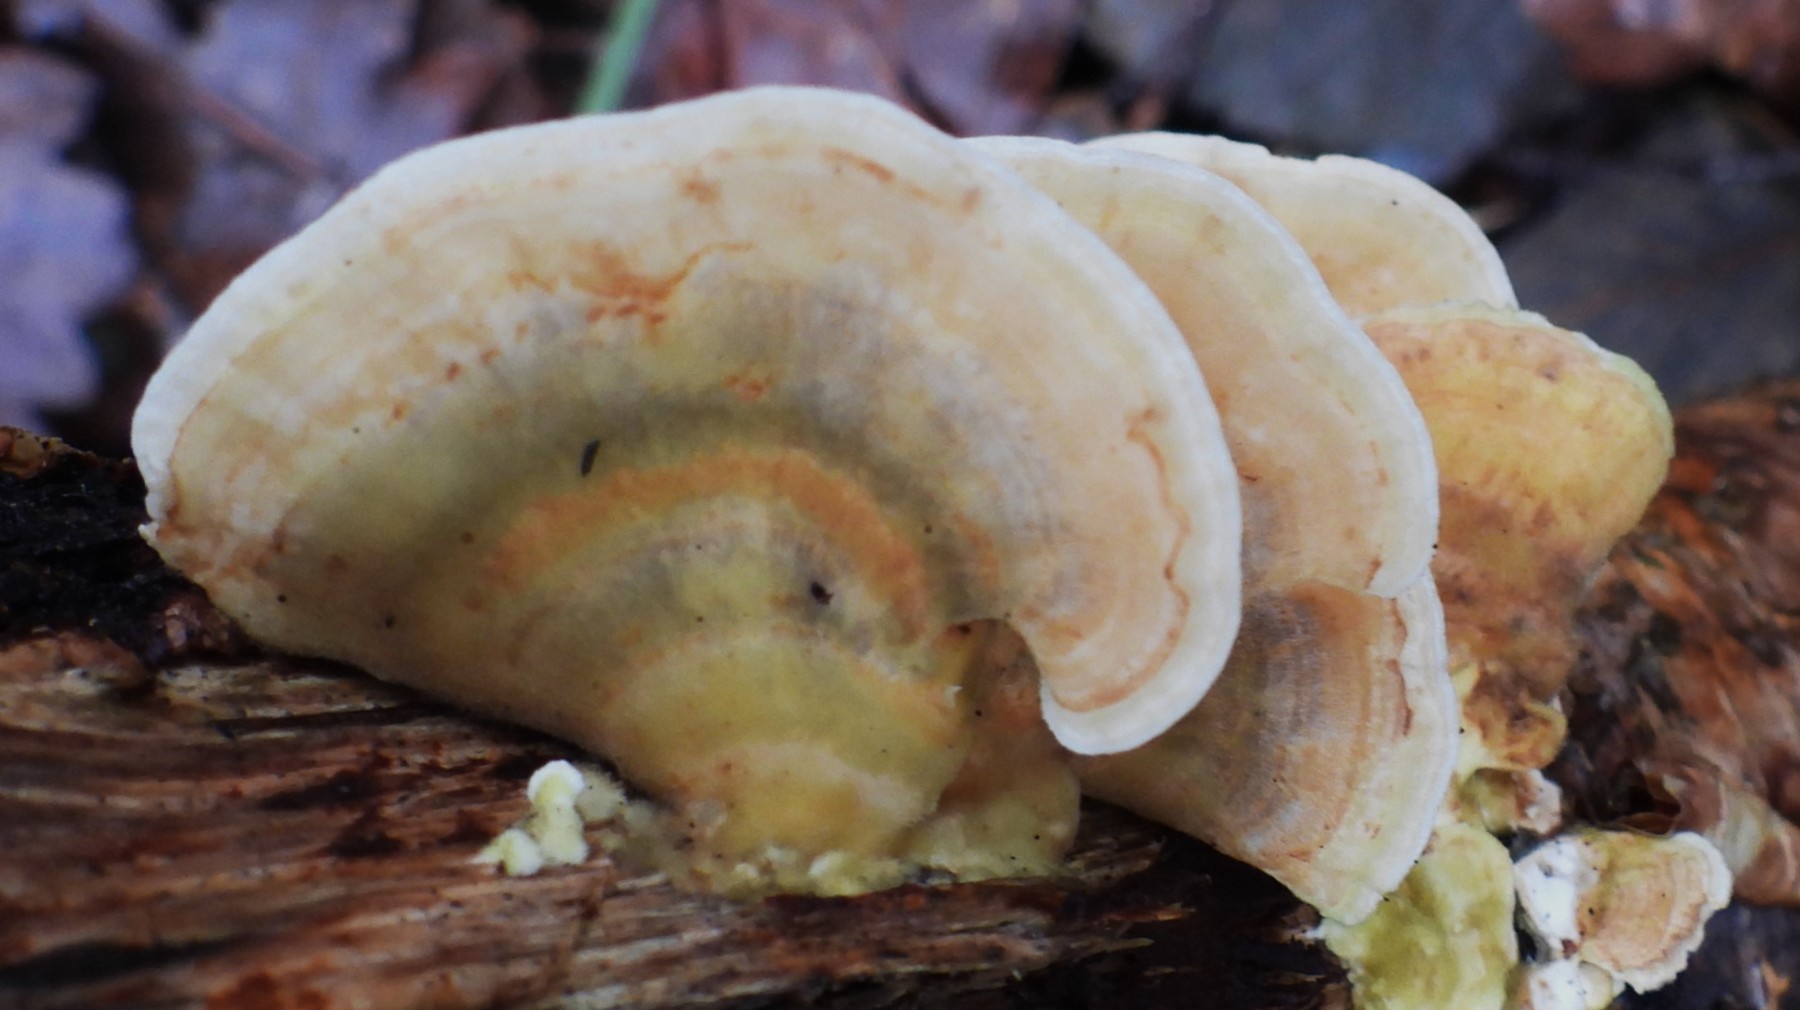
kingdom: Fungi
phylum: Basidiomycota
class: Agaricomycetes
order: Polyporales
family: Polyporaceae
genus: Trametes
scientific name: Trametes ochracea
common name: bæltet læderporesvamp
